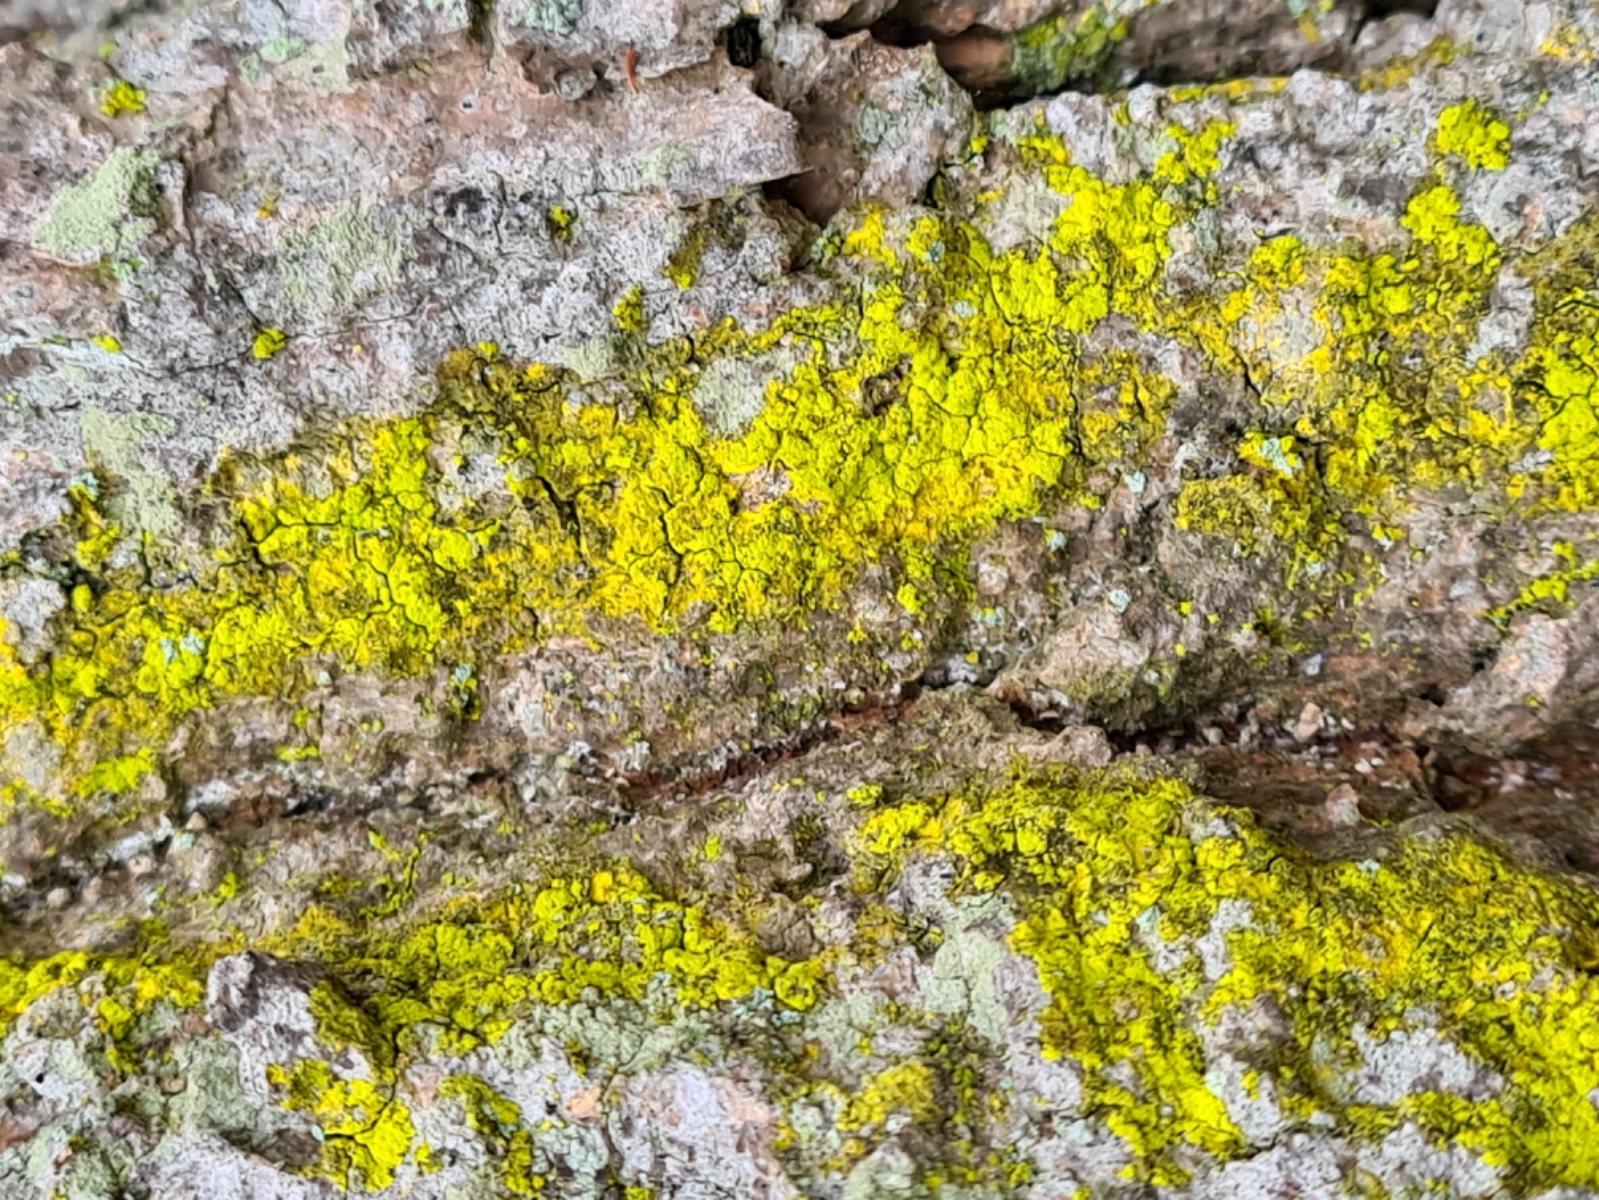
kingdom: Fungi
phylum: Ascomycota
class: Arthoniomycetes
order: Arthoniales
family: Chrysotrichaceae
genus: Chrysothrix
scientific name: Chrysothrix candelaris
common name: gul støvlav
